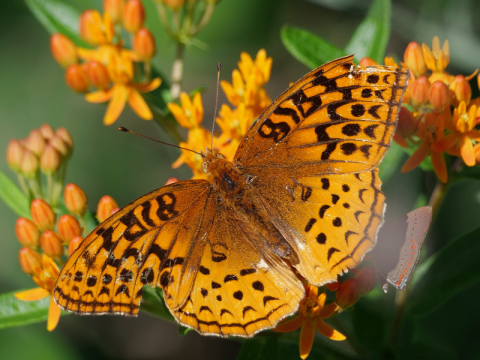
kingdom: Animalia
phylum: Arthropoda
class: Insecta
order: Lepidoptera
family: Nymphalidae
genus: Speyeria
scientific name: Speyeria cybele
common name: Great Spangled Fritillary
